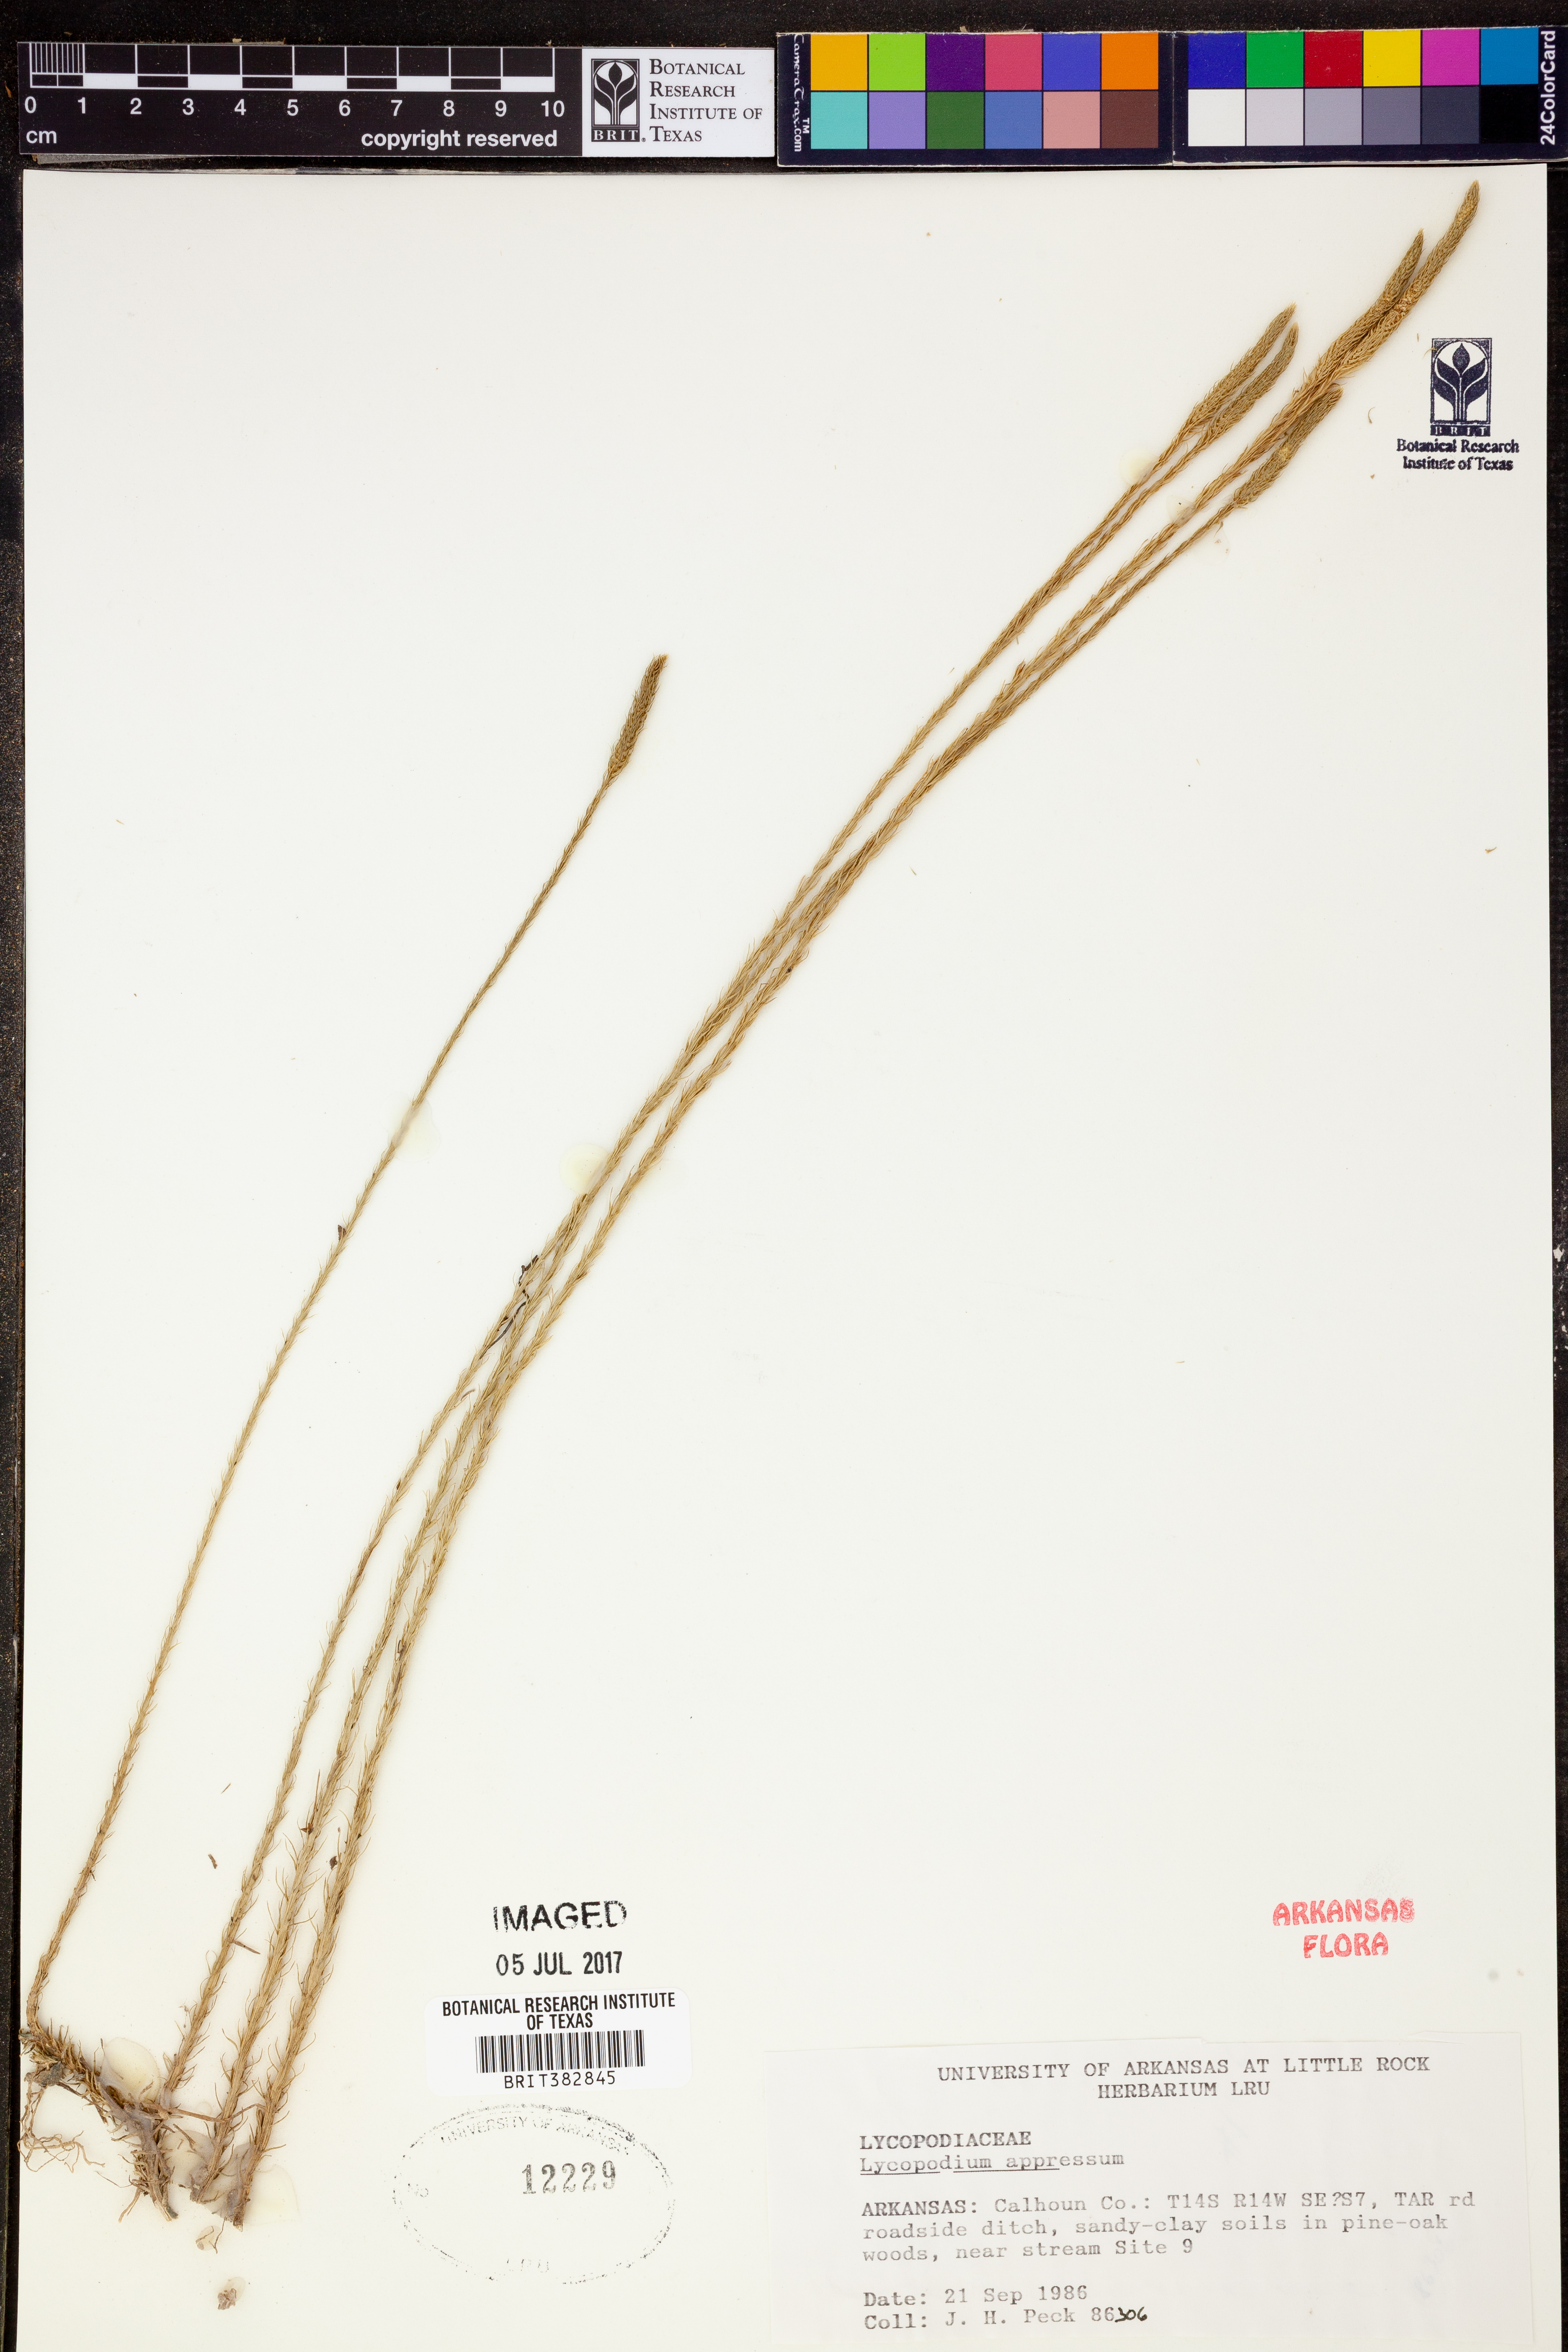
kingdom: Plantae
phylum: Tracheophyta
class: Lycopodiopsida
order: Lycopodiales
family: Lycopodiaceae
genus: Lycopodiella
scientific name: Lycopodiella appressa
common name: Appressed bog clubmoss
